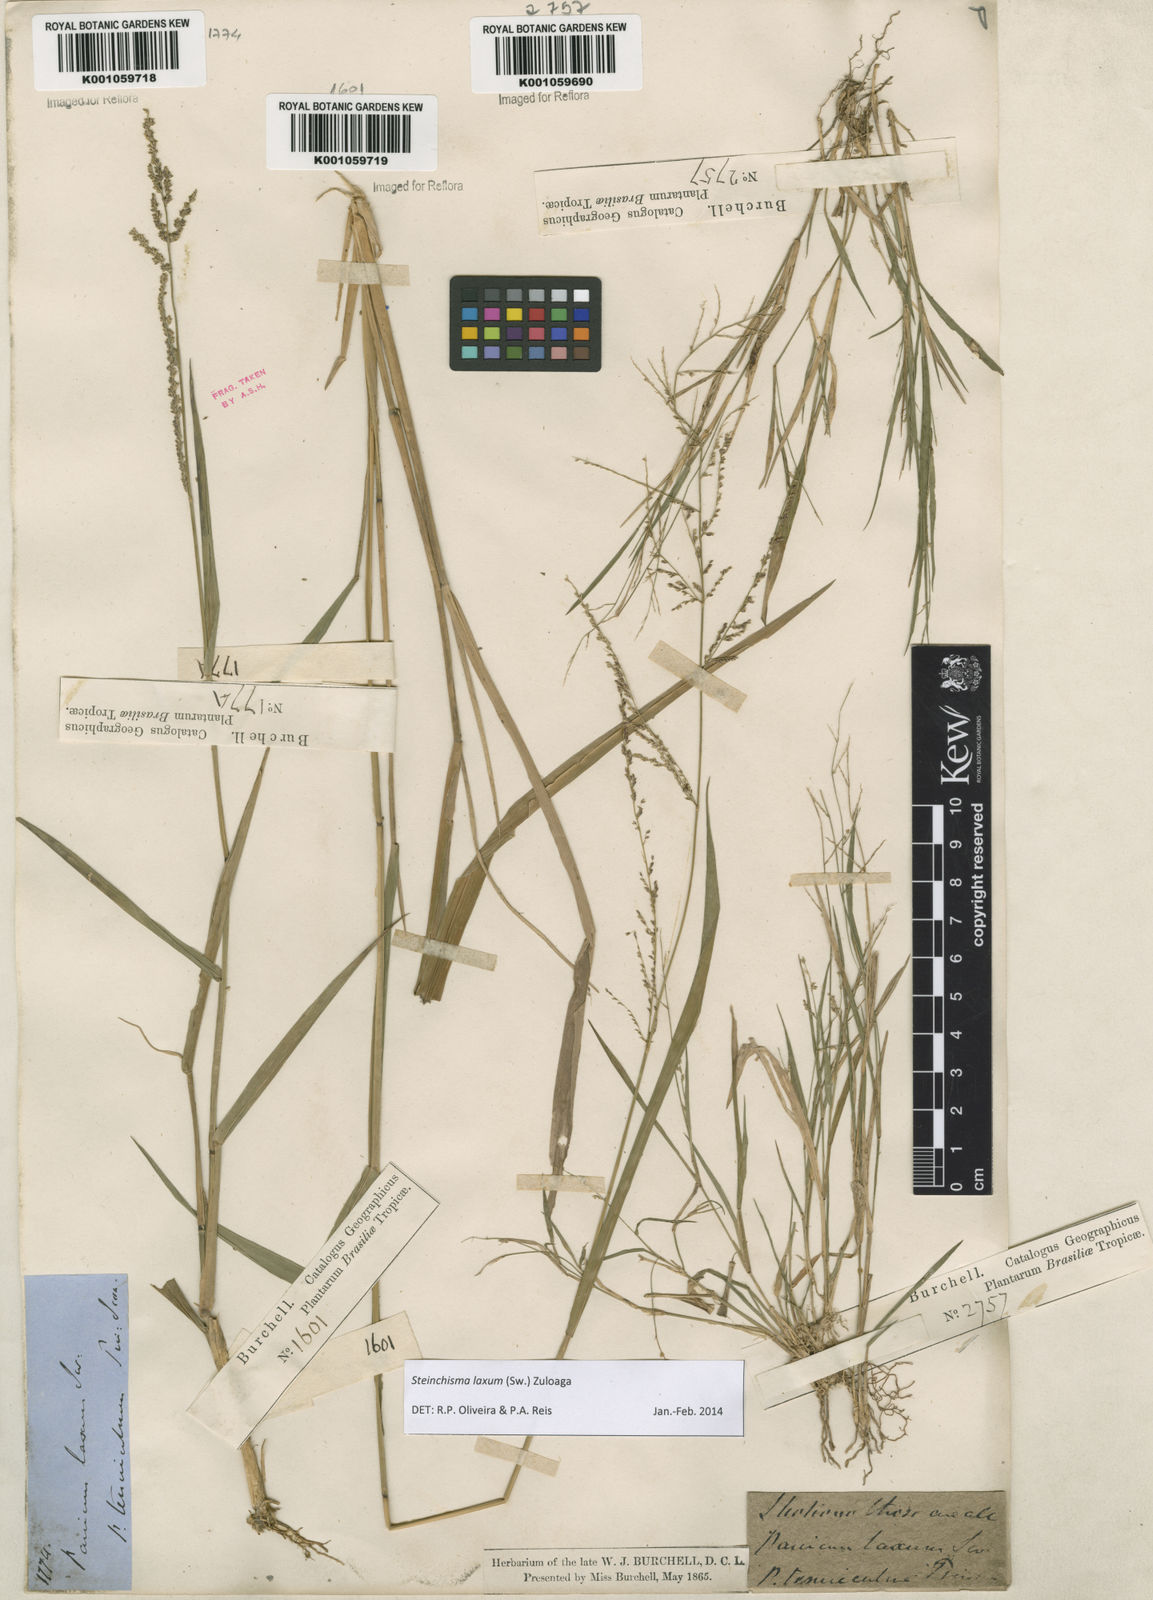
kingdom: Plantae
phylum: Tracheophyta
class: Liliopsida
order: Poales
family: Poaceae
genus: Steinchisma
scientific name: Steinchisma laxum
